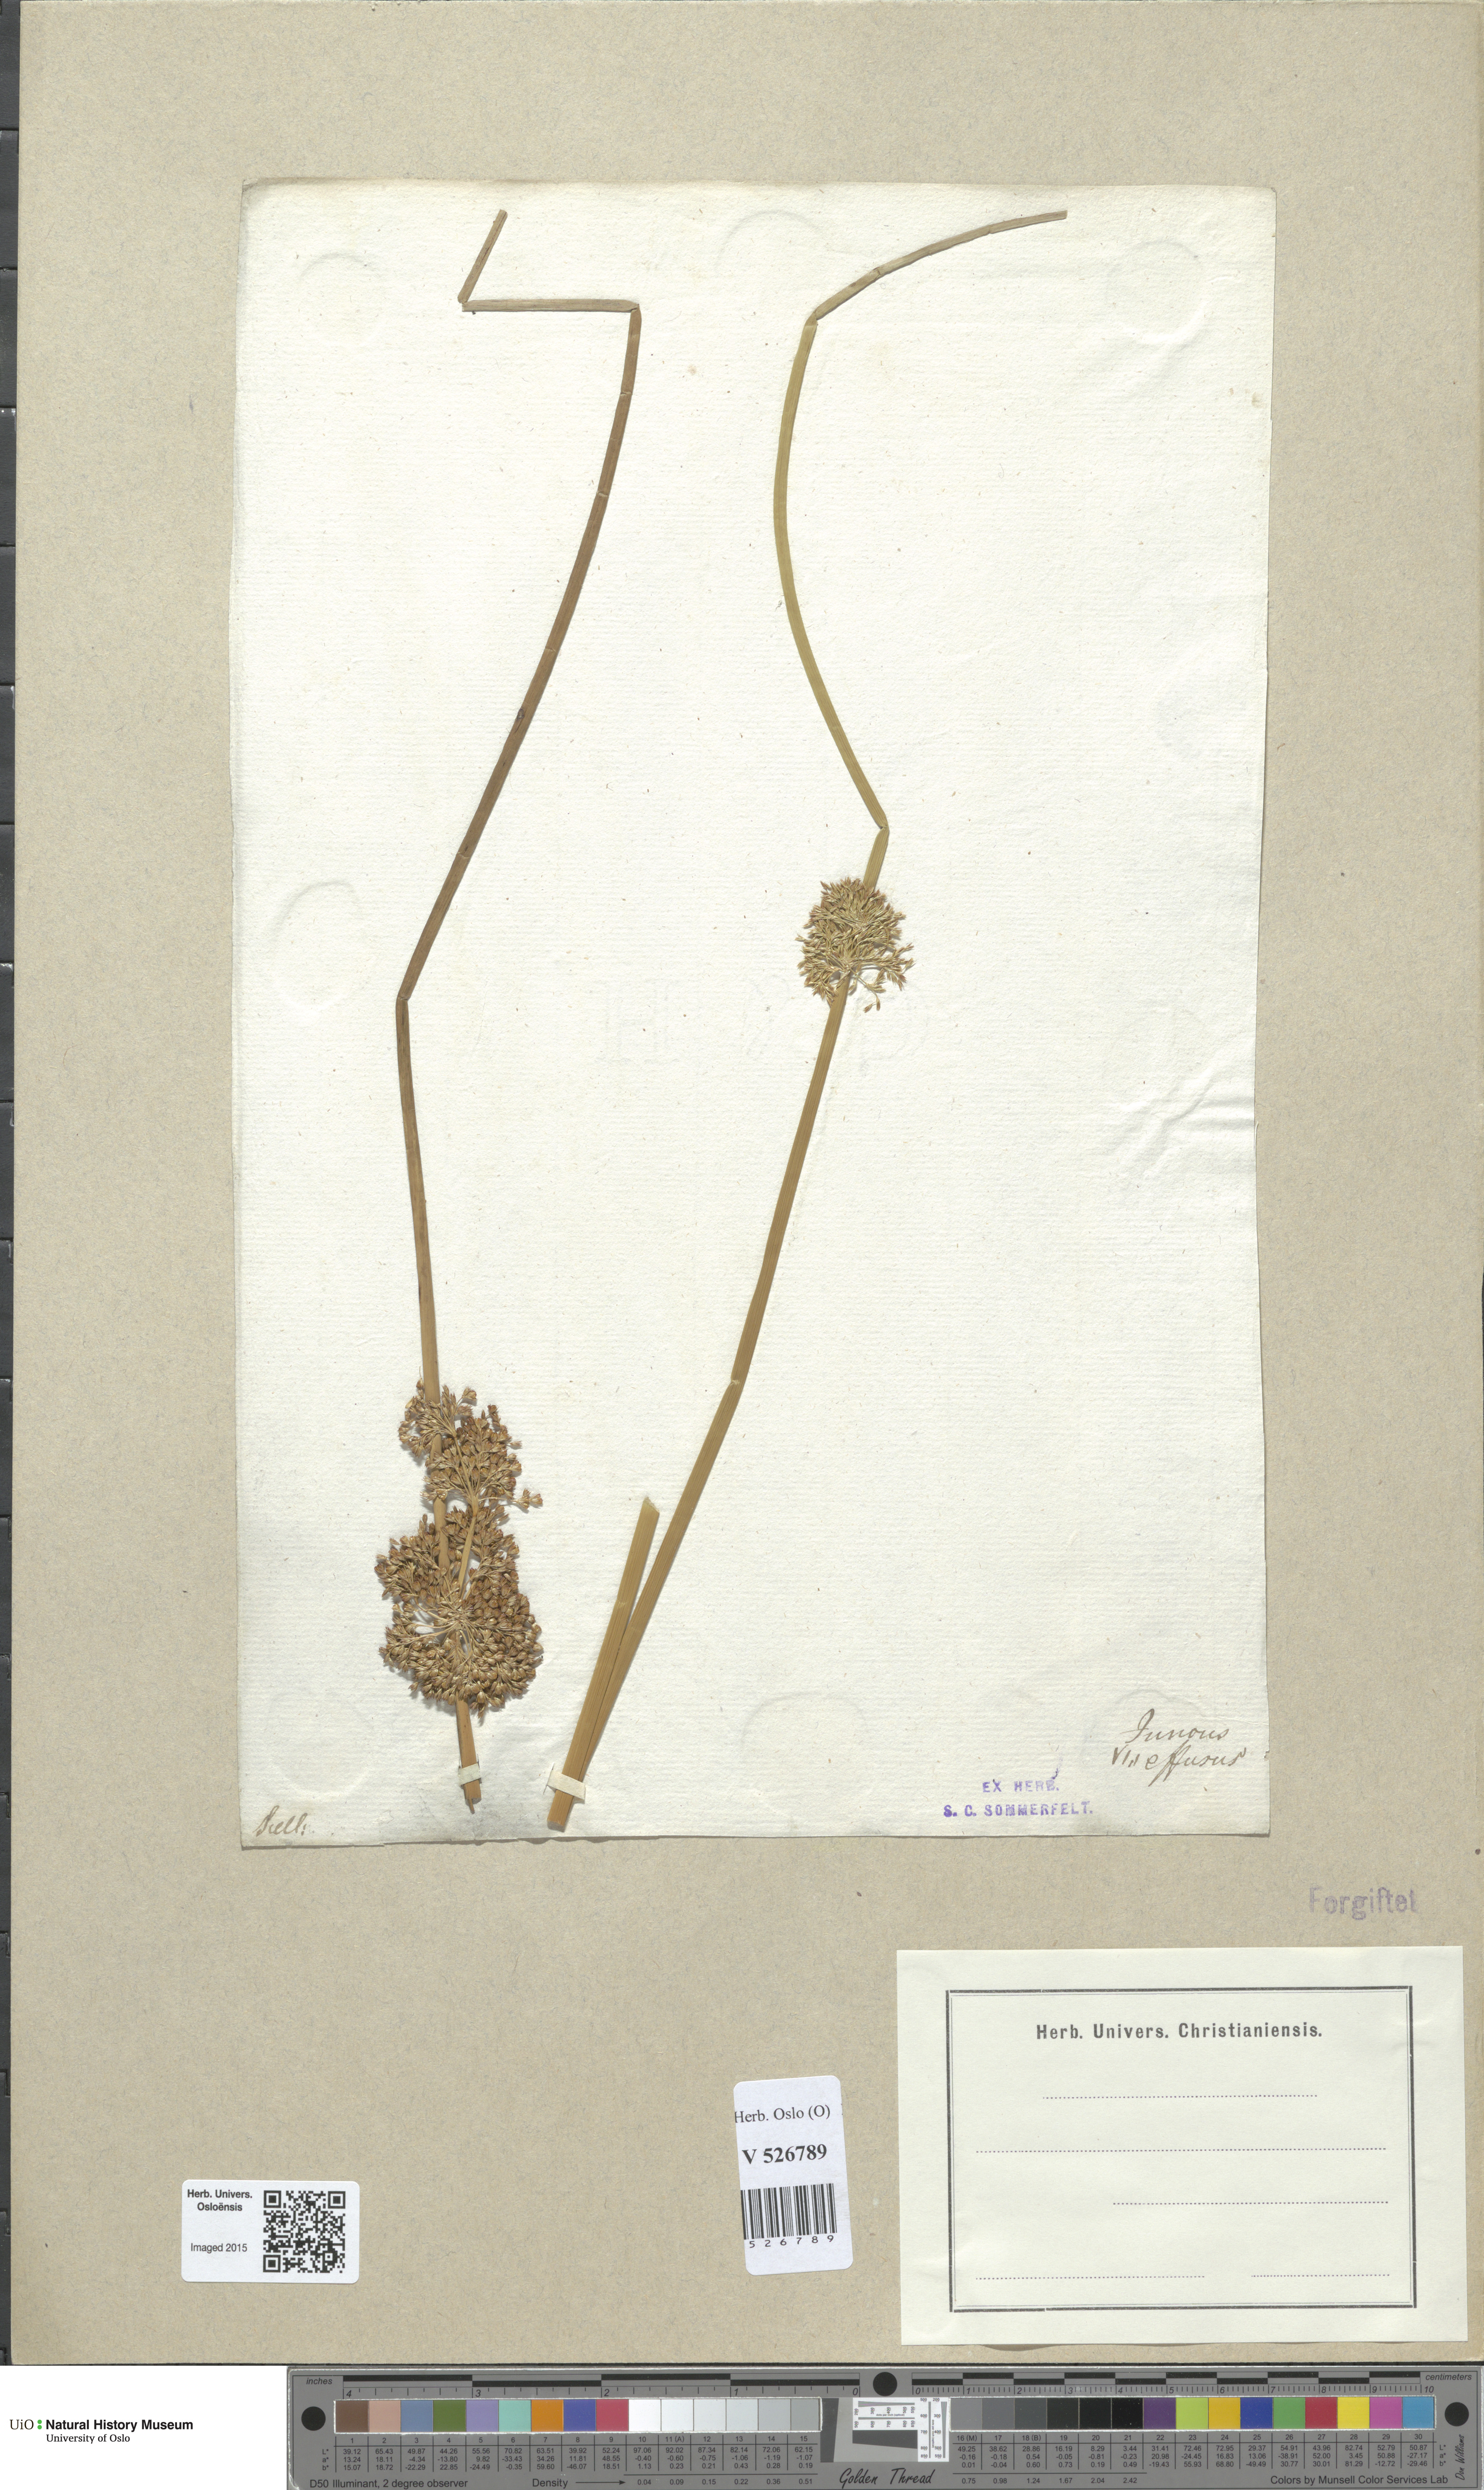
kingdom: Plantae
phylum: Tracheophyta
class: Liliopsida
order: Poales
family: Juncaceae
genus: Juncus
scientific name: Juncus effusus
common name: Soft rush
